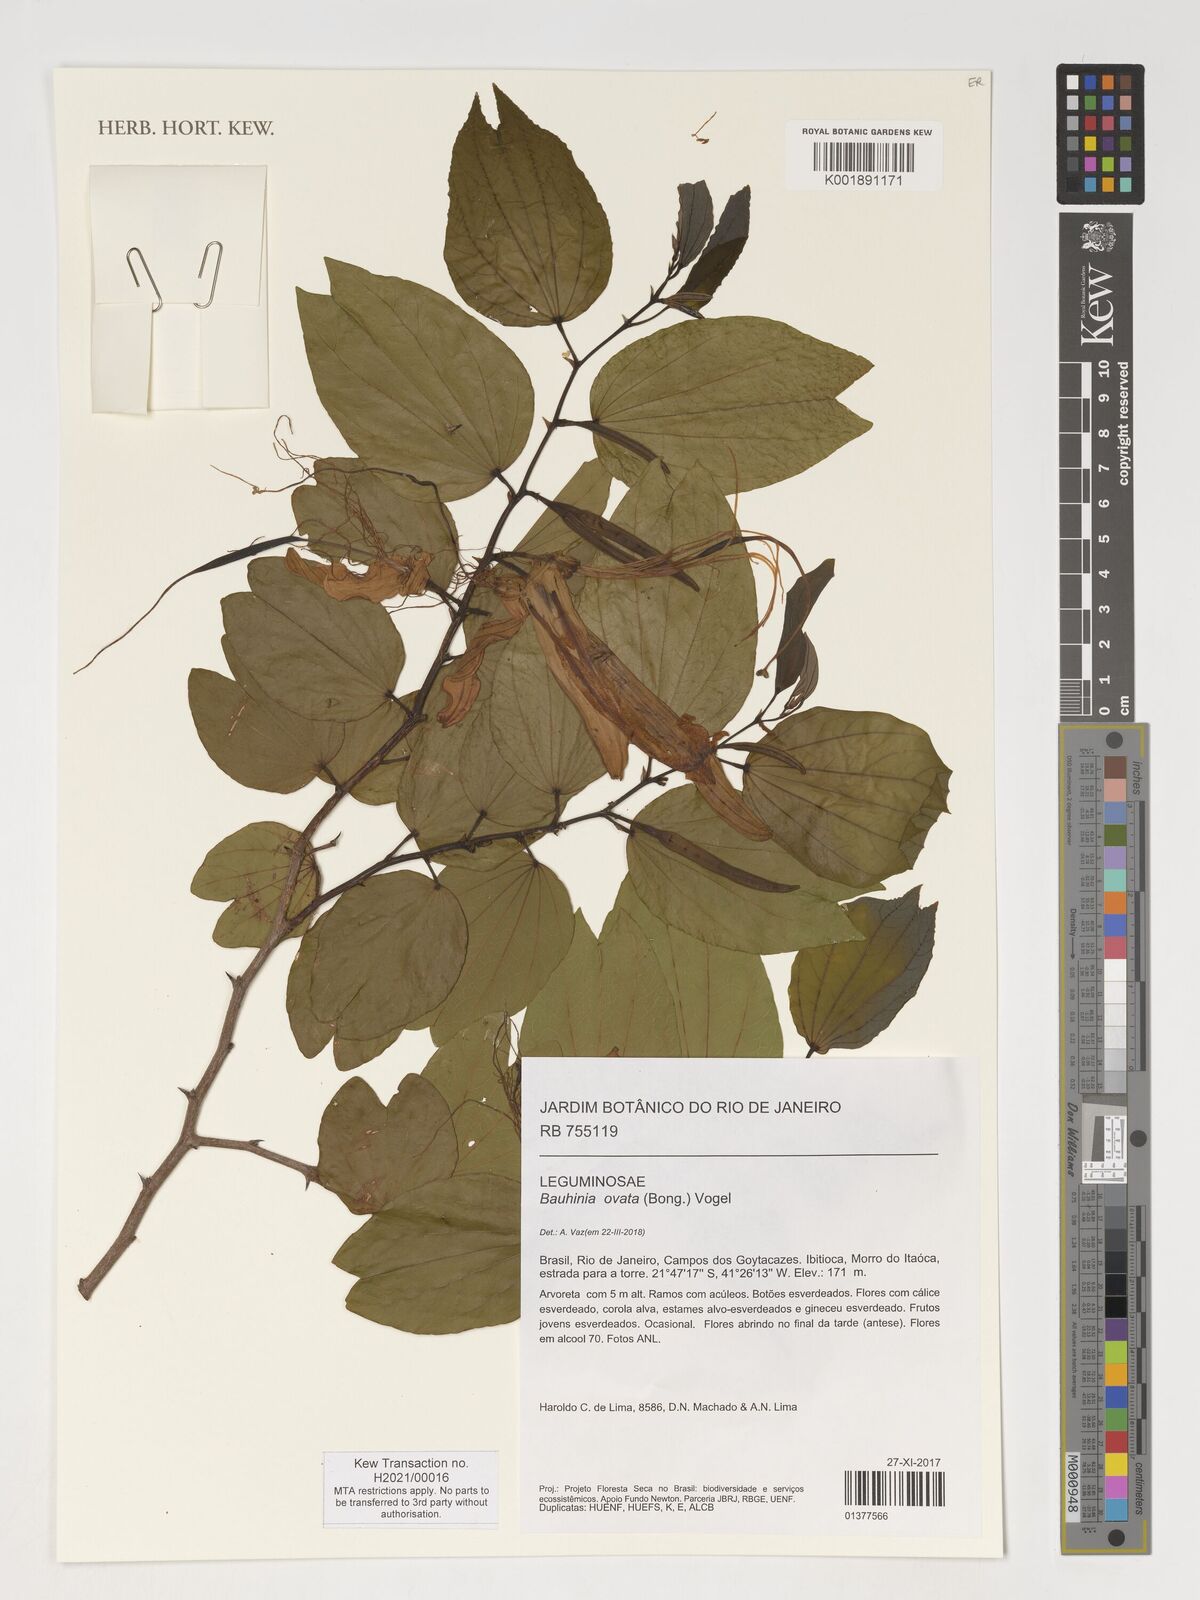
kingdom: Plantae
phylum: Tracheophyta
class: Magnoliopsida
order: Fabales
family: Fabaceae
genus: Bauhinia
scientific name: Bauhinia ovata
